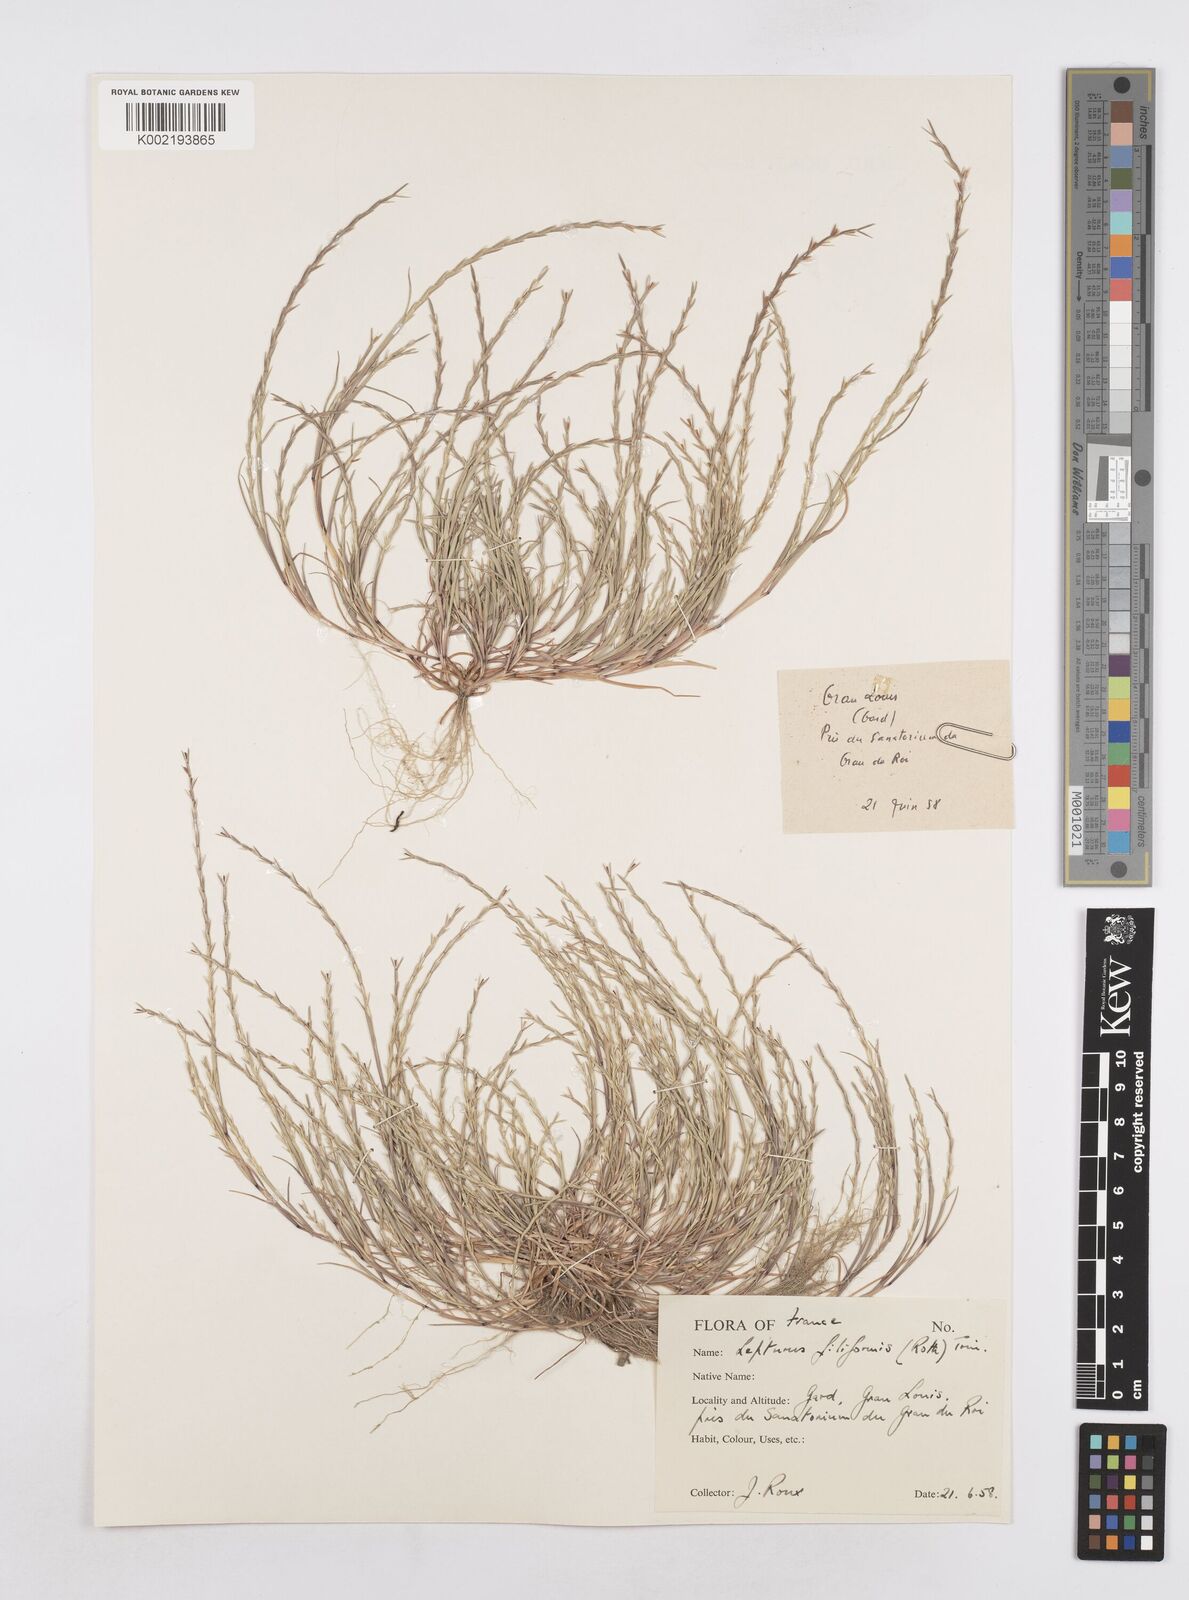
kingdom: Plantae
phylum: Tracheophyta
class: Liliopsida
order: Poales
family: Poaceae
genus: Parapholis
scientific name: Parapholis strigosa
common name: Hard-grass
